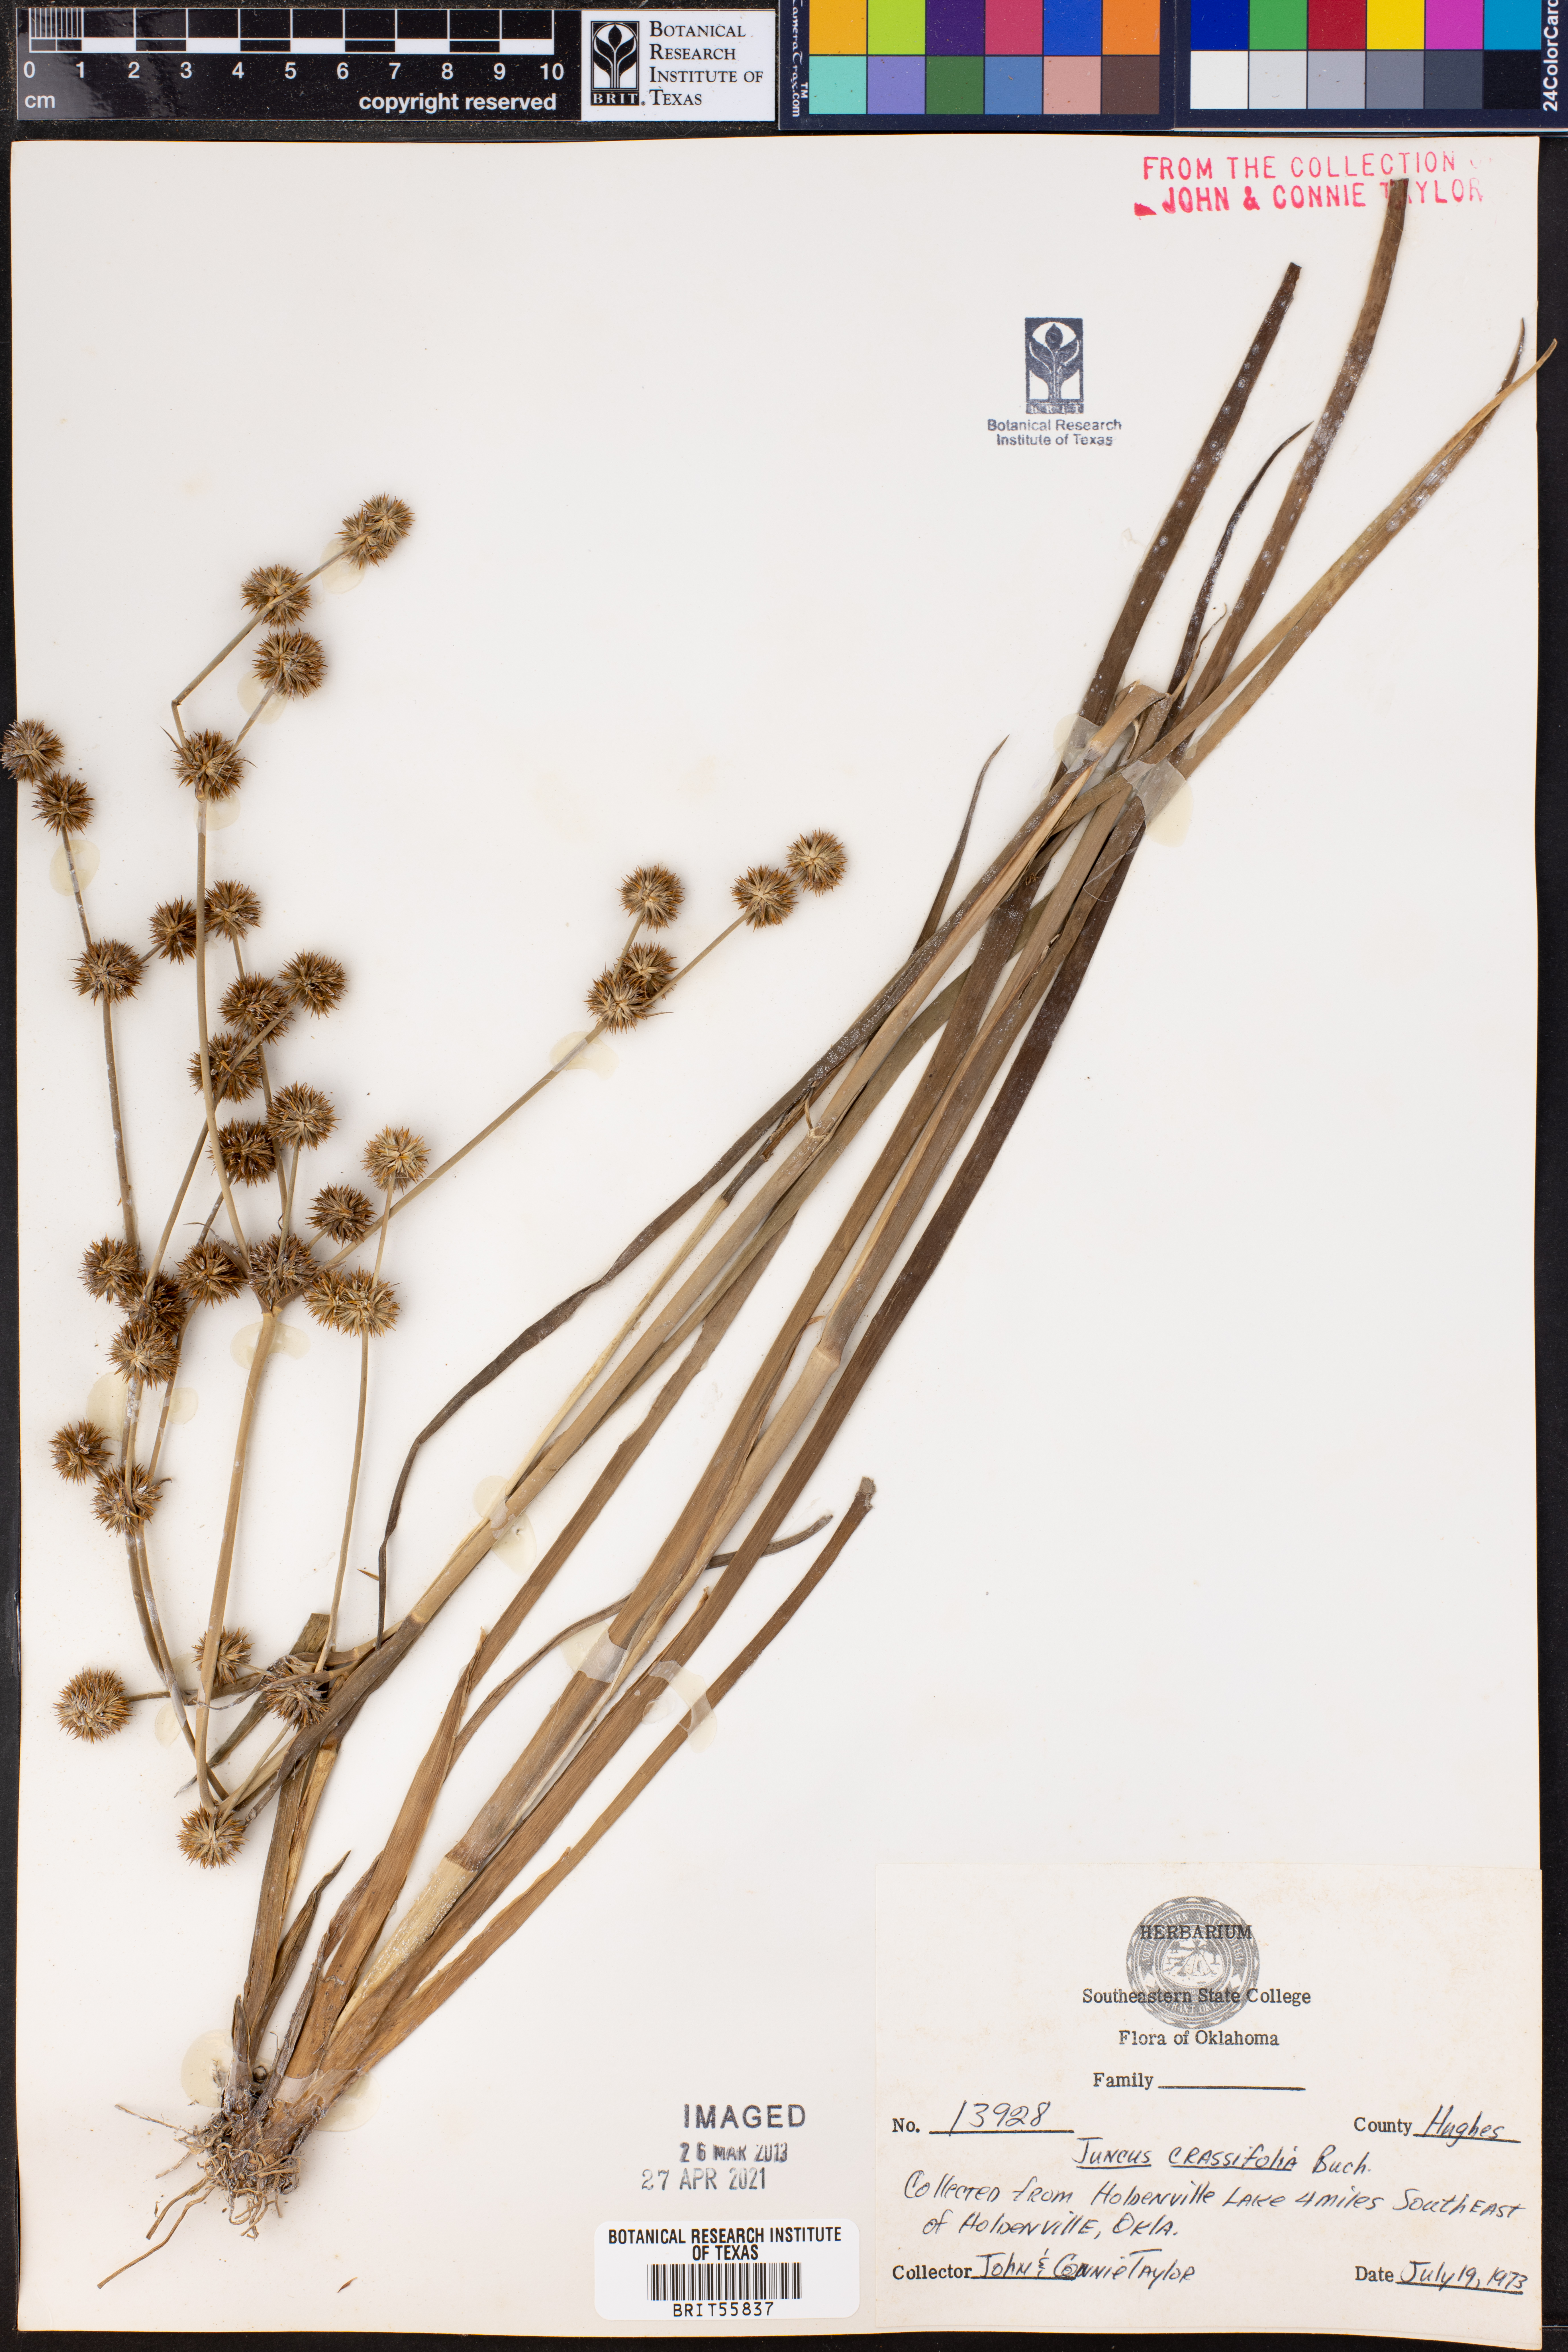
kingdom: Plantae
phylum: Tracheophyta
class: Liliopsida
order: Poales
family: Juncaceae
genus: Juncus
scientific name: Juncus validus
